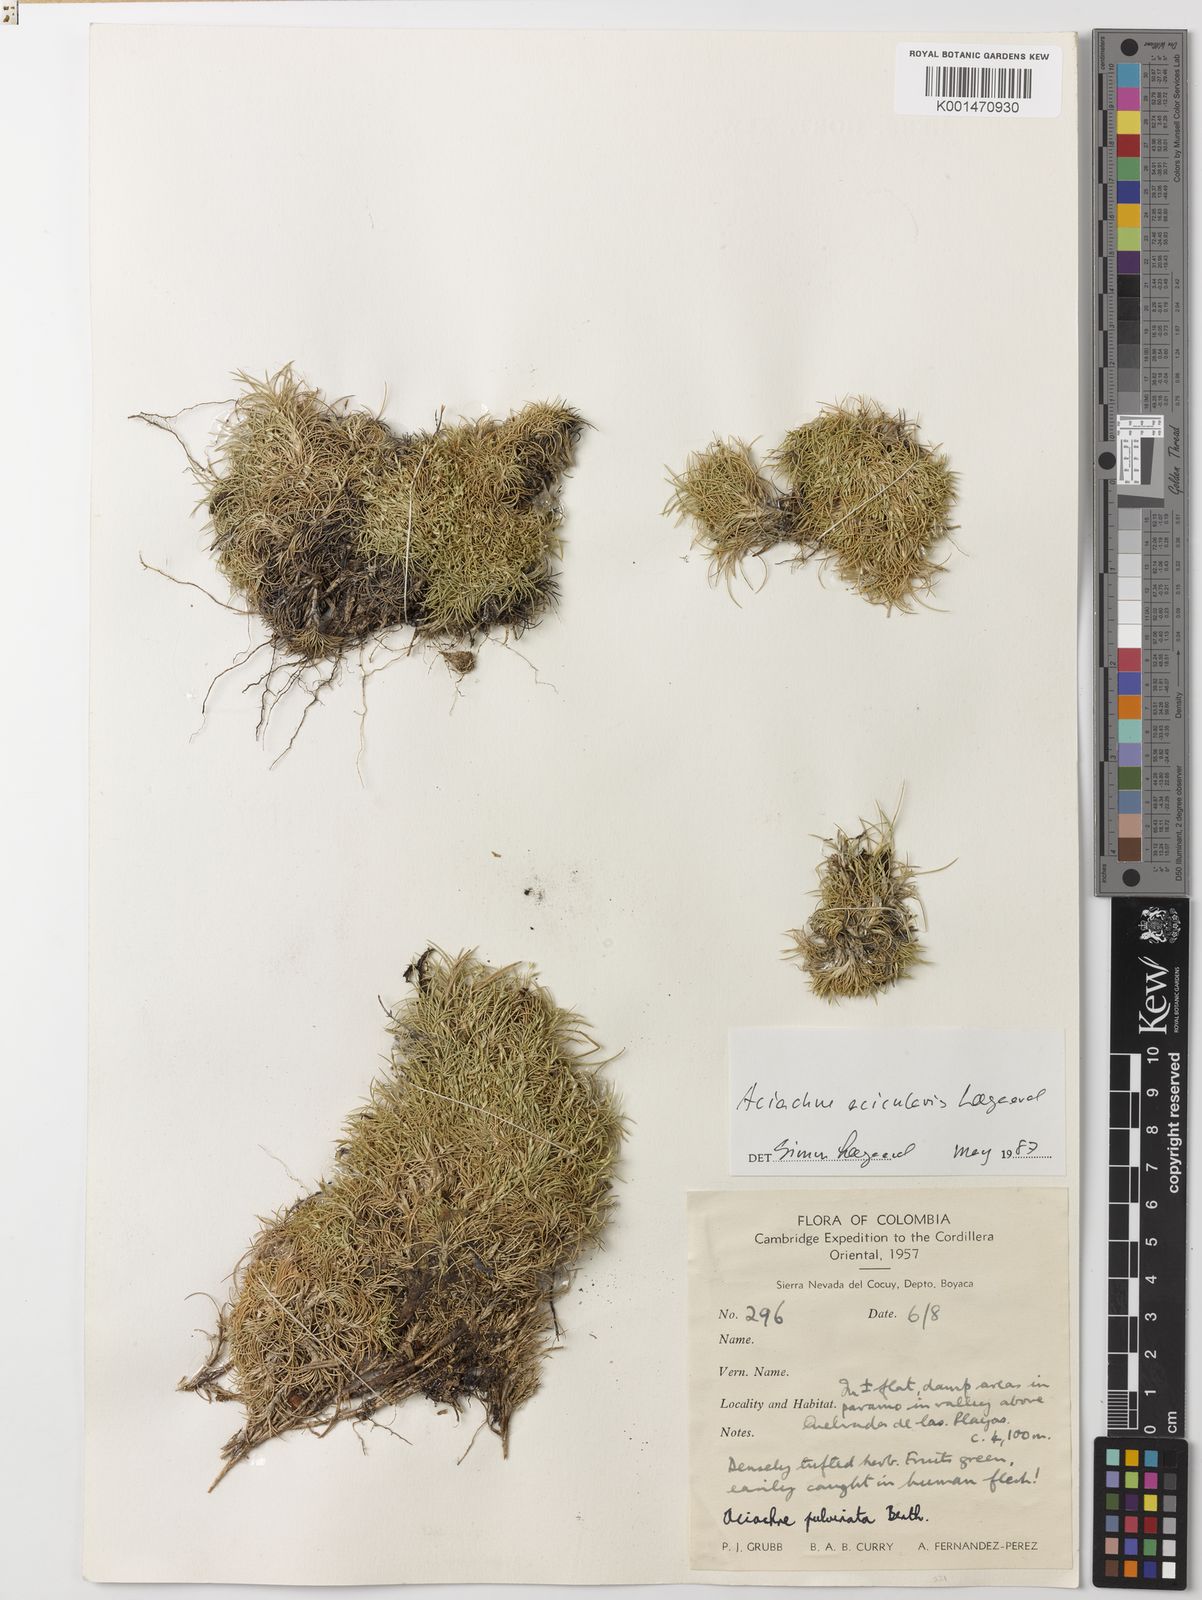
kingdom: Plantae
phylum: Tracheophyta
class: Liliopsida
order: Poales
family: Poaceae
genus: Aciachne
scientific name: Aciachne acicularis
